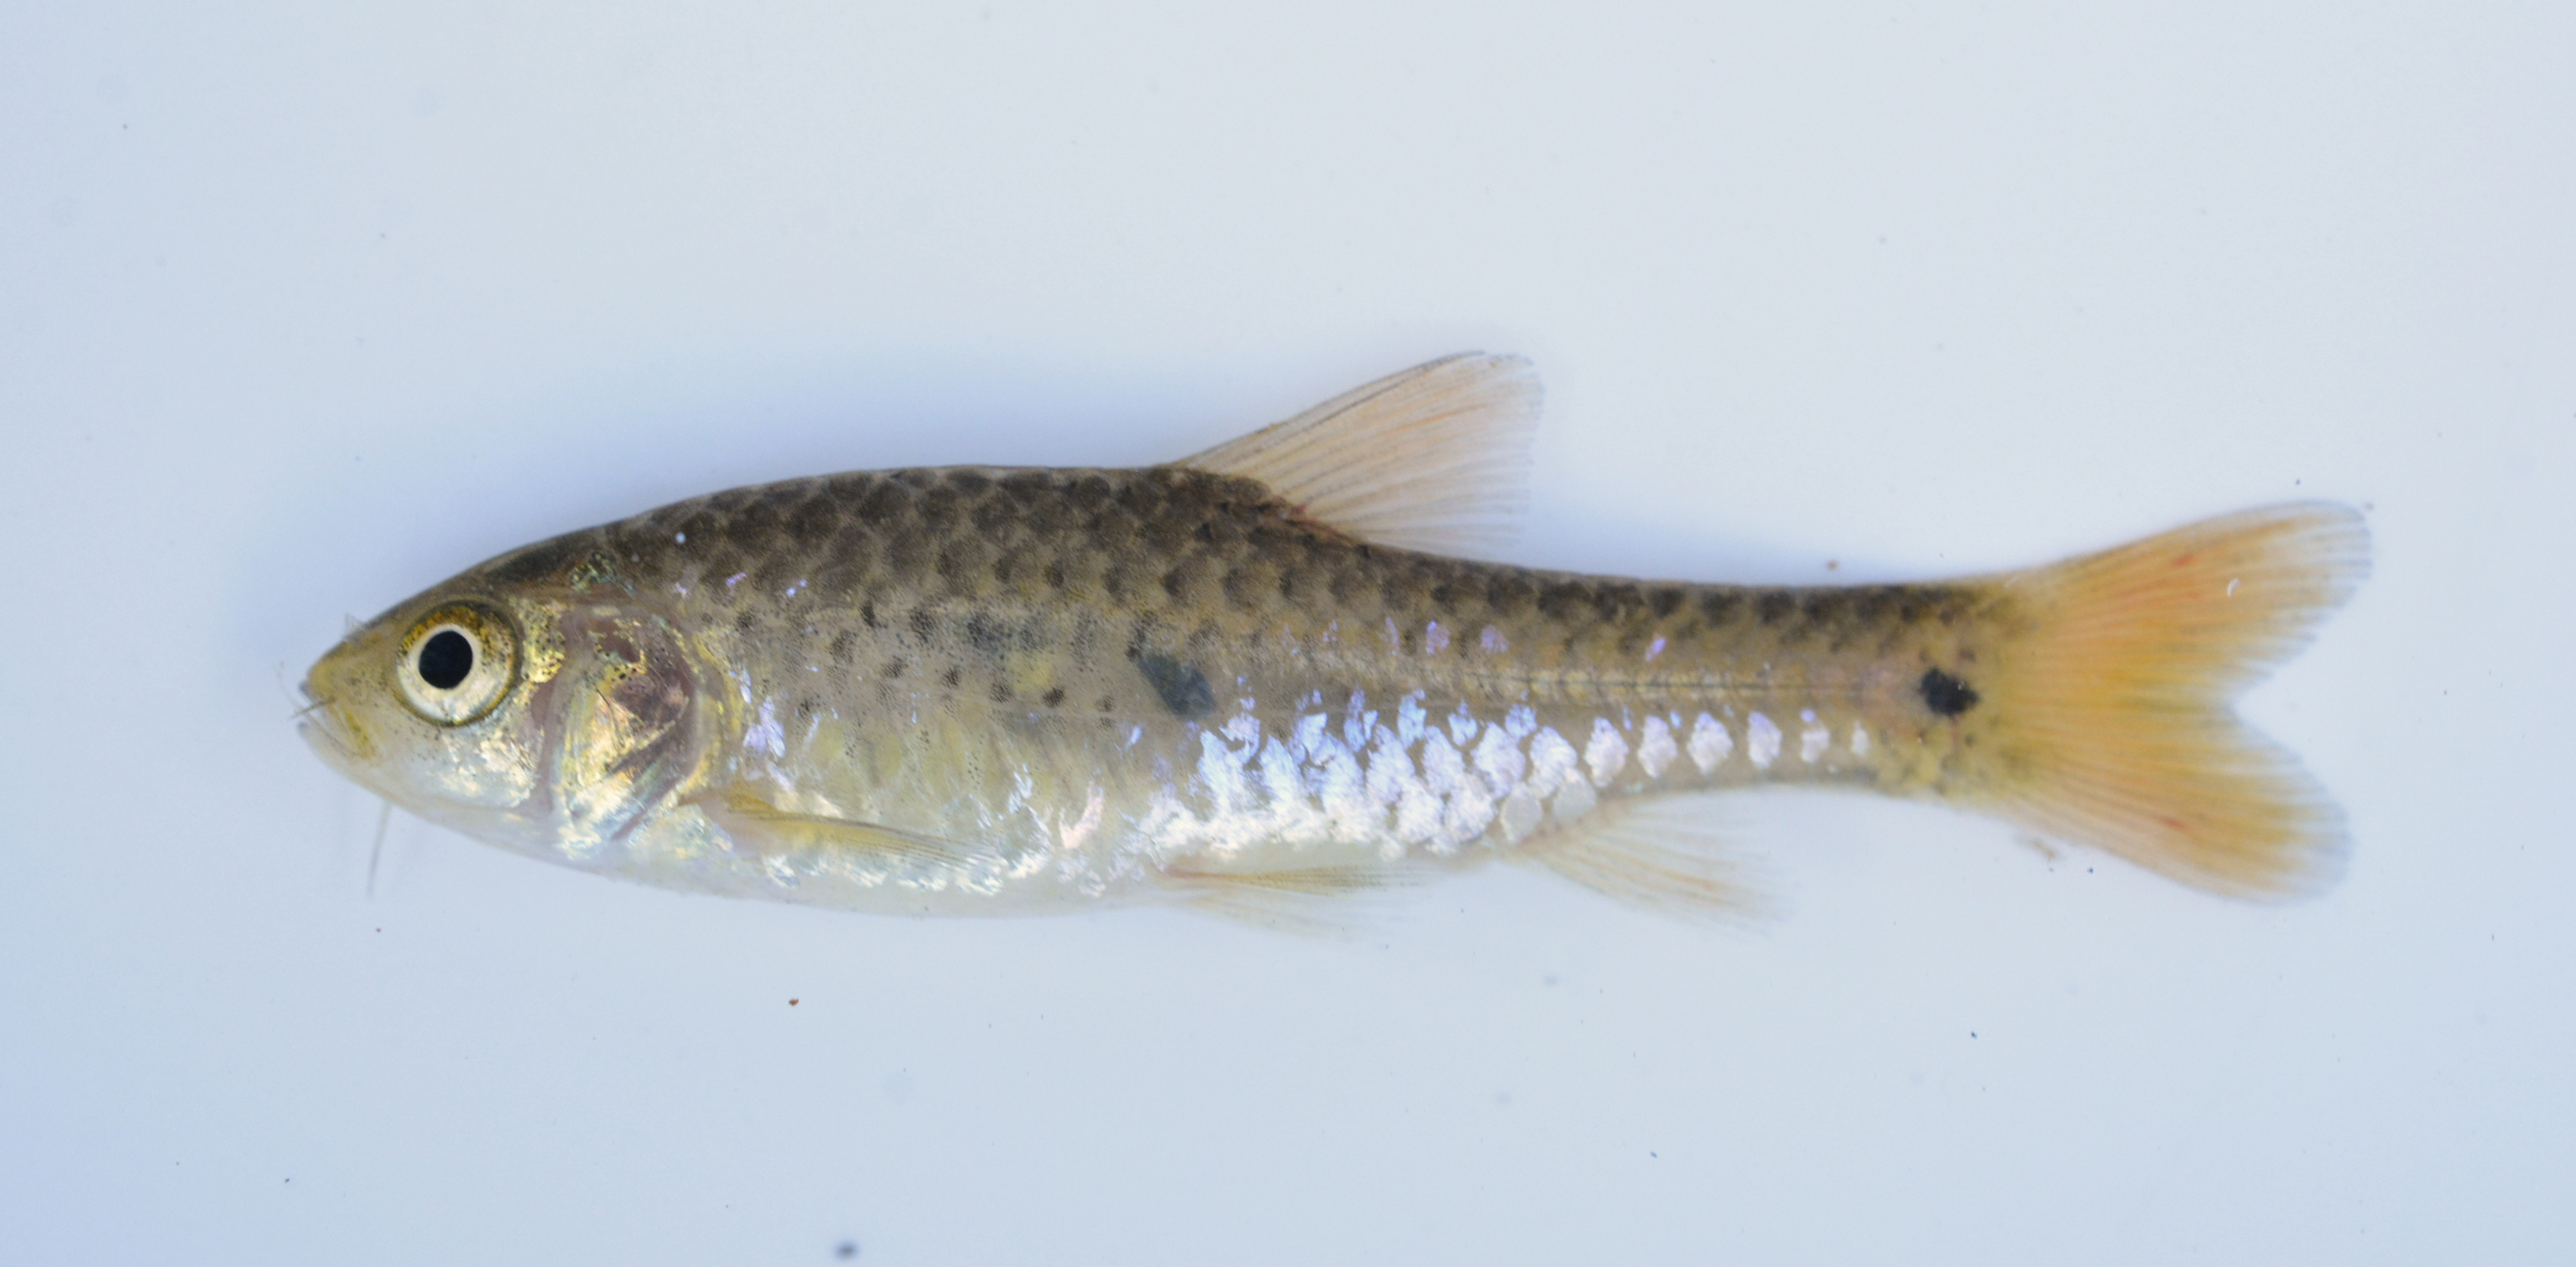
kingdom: Animalia
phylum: Chordata
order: Cypriniformes
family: Cyprinidae
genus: Enteromius
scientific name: Enteromius evansi
